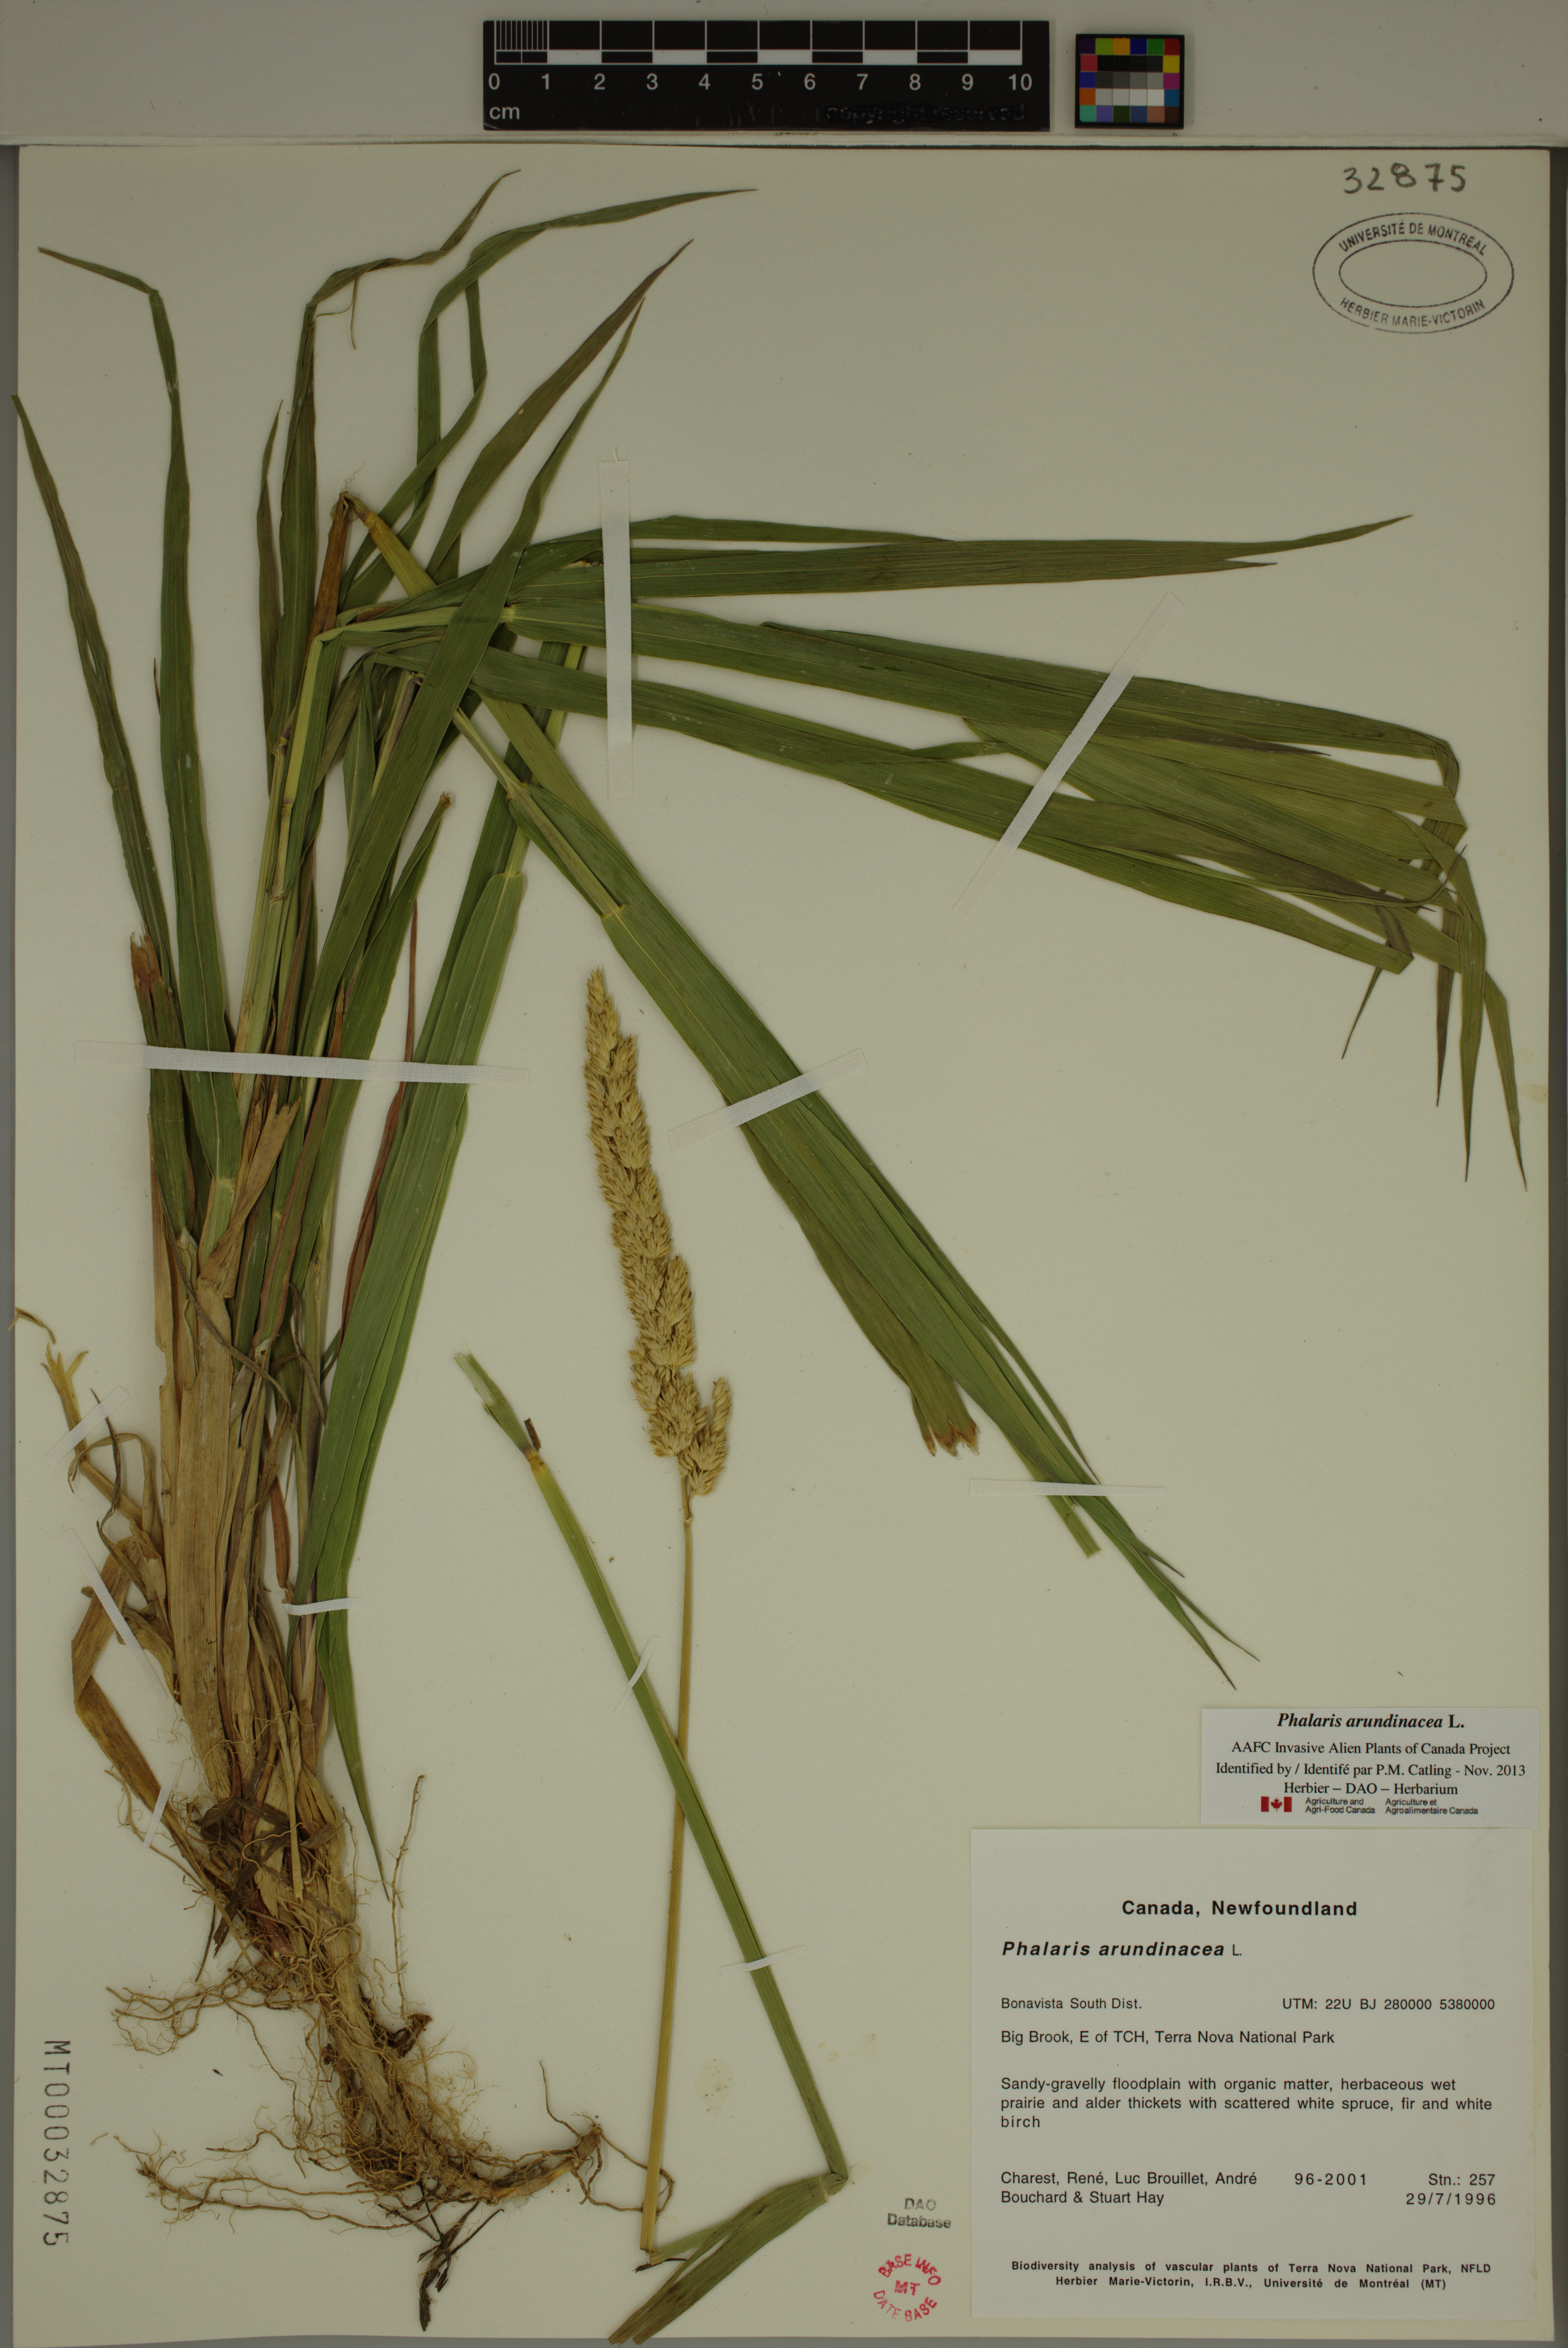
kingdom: Plantae
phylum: Tracheophyta
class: Liliopsida
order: Poales
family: Poaceae
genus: Phalaris
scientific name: Phalaris arundinacea
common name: Reed canary-grass
